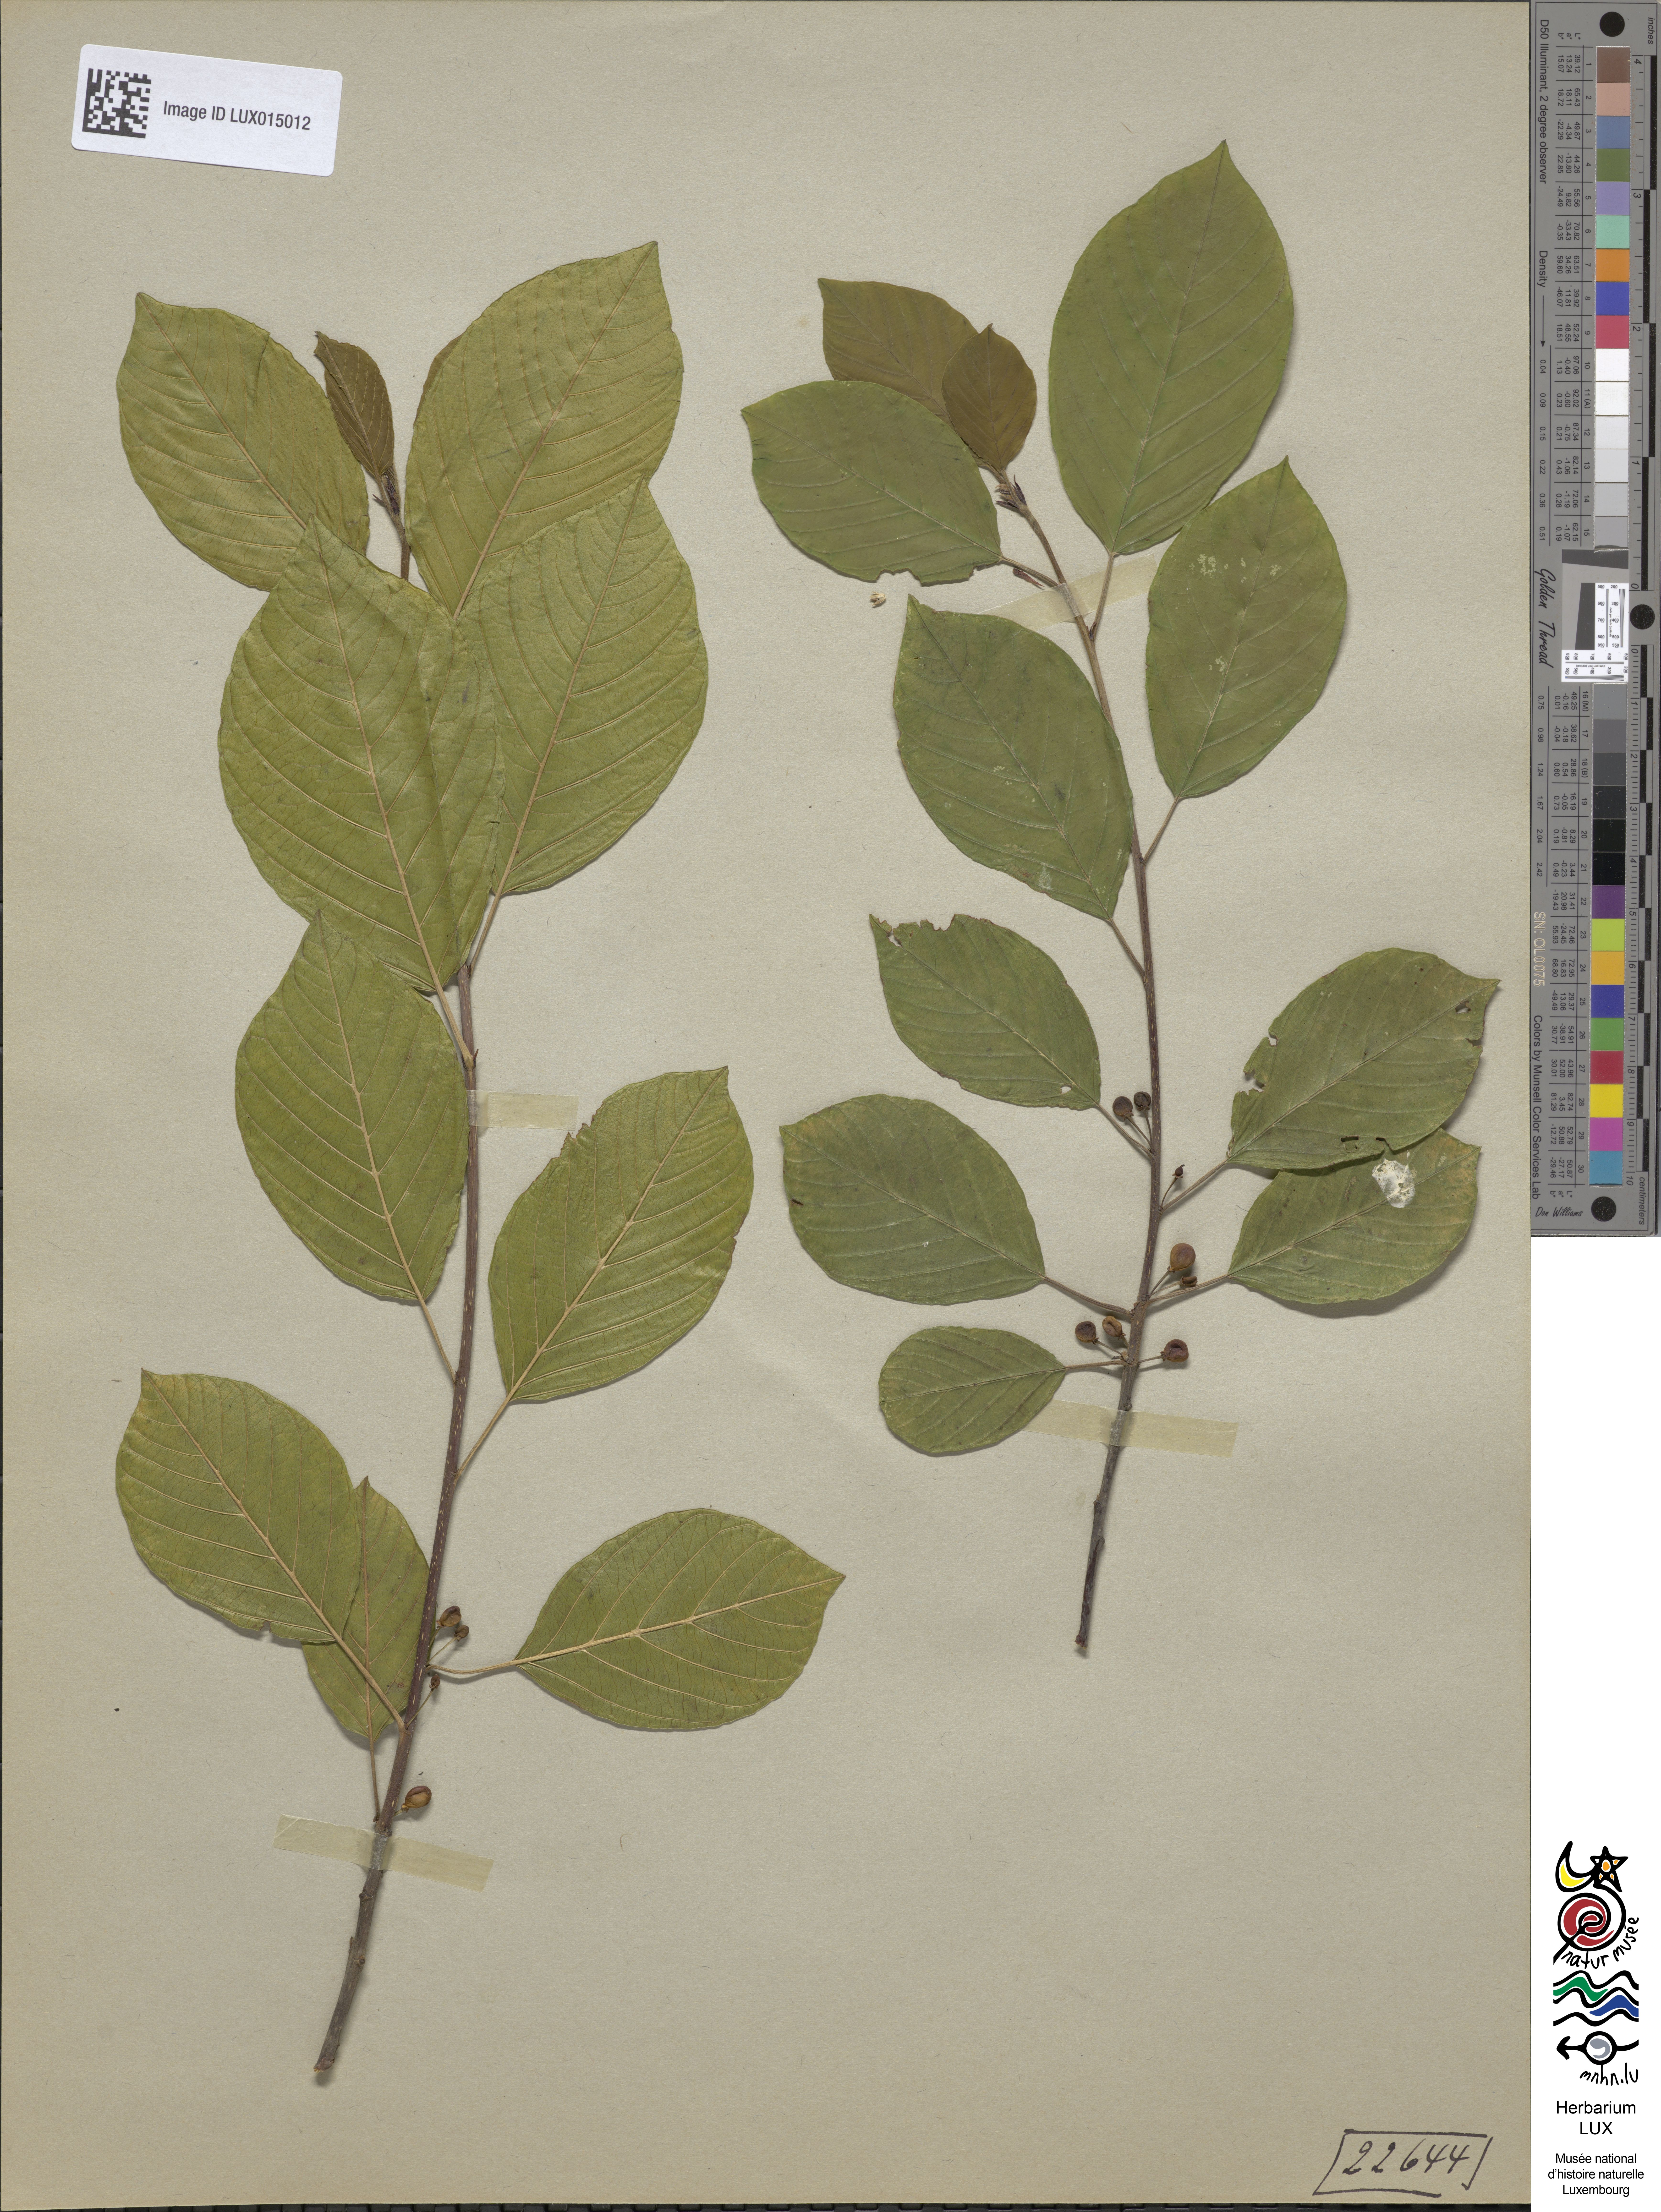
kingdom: Plantae
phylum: Tracheophyta
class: Magnoliopsida
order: Rosales
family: Rhamnaceae
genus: Frangula
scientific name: Frangula alnus
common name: Alder buckthorn
